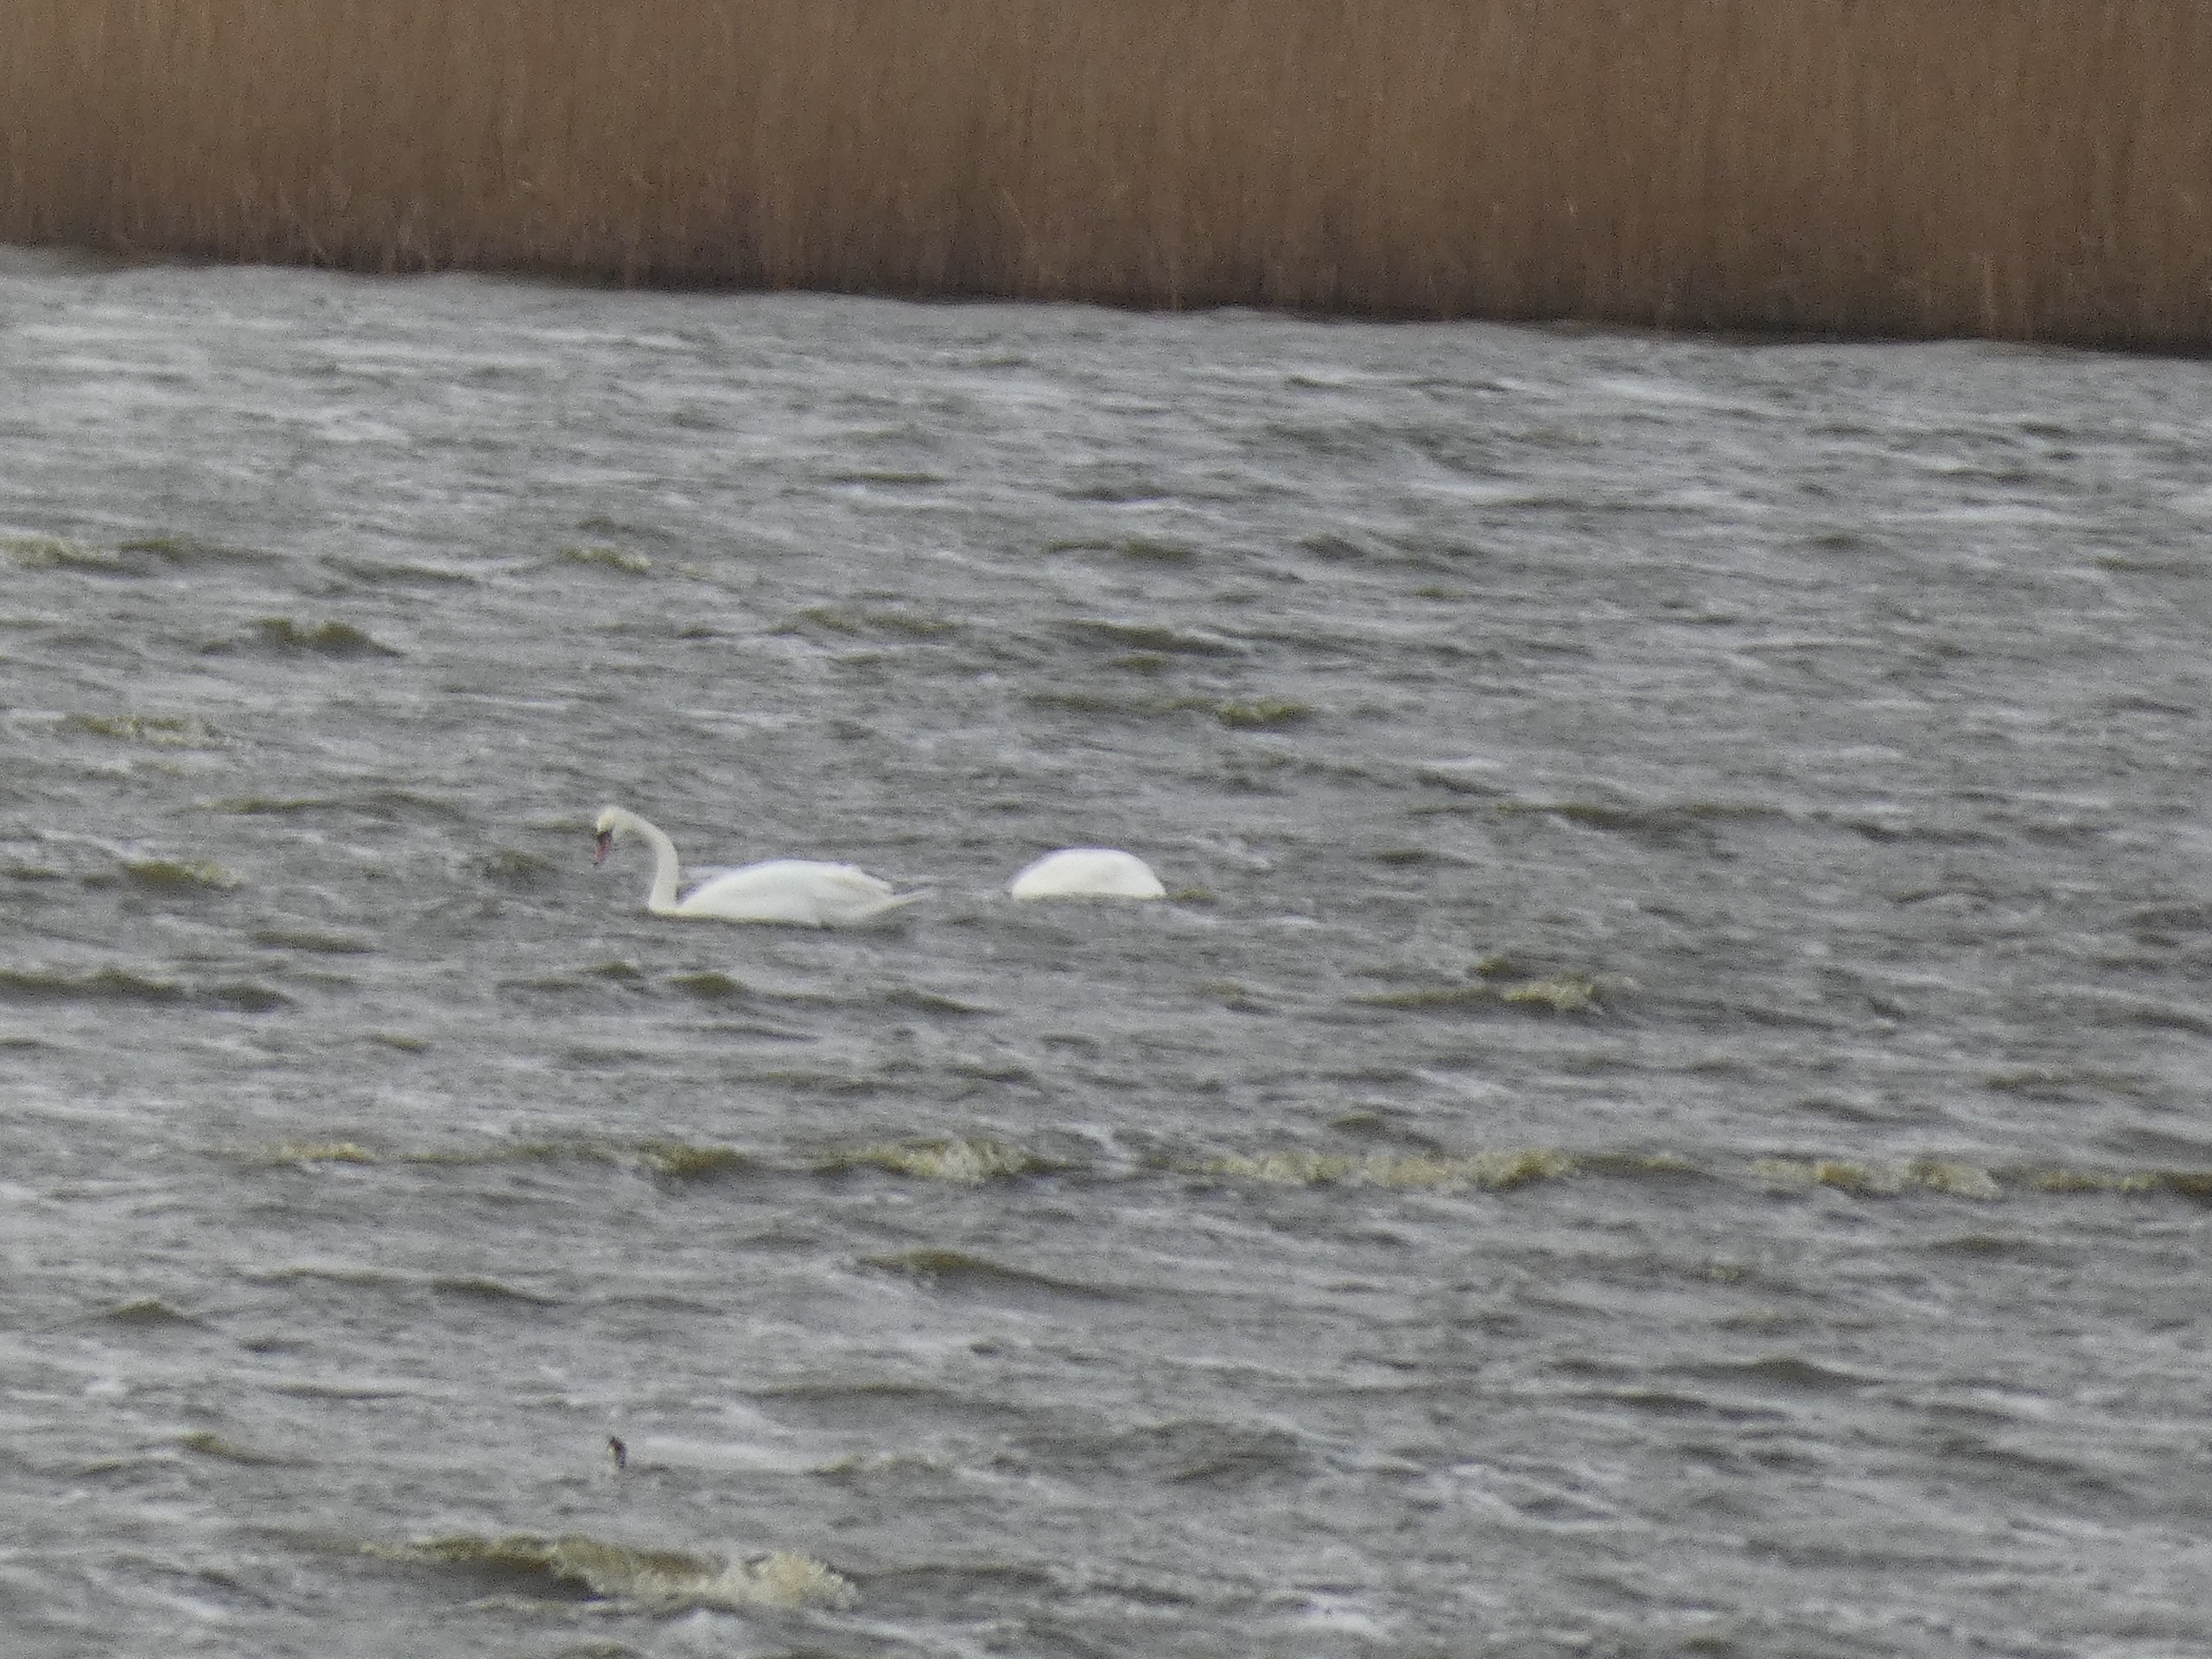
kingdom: Animalia
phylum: Chordata
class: Aves
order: Anseriformes
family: Anatidae
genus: Cygnus
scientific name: Cygnus olor
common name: Knopsvane
